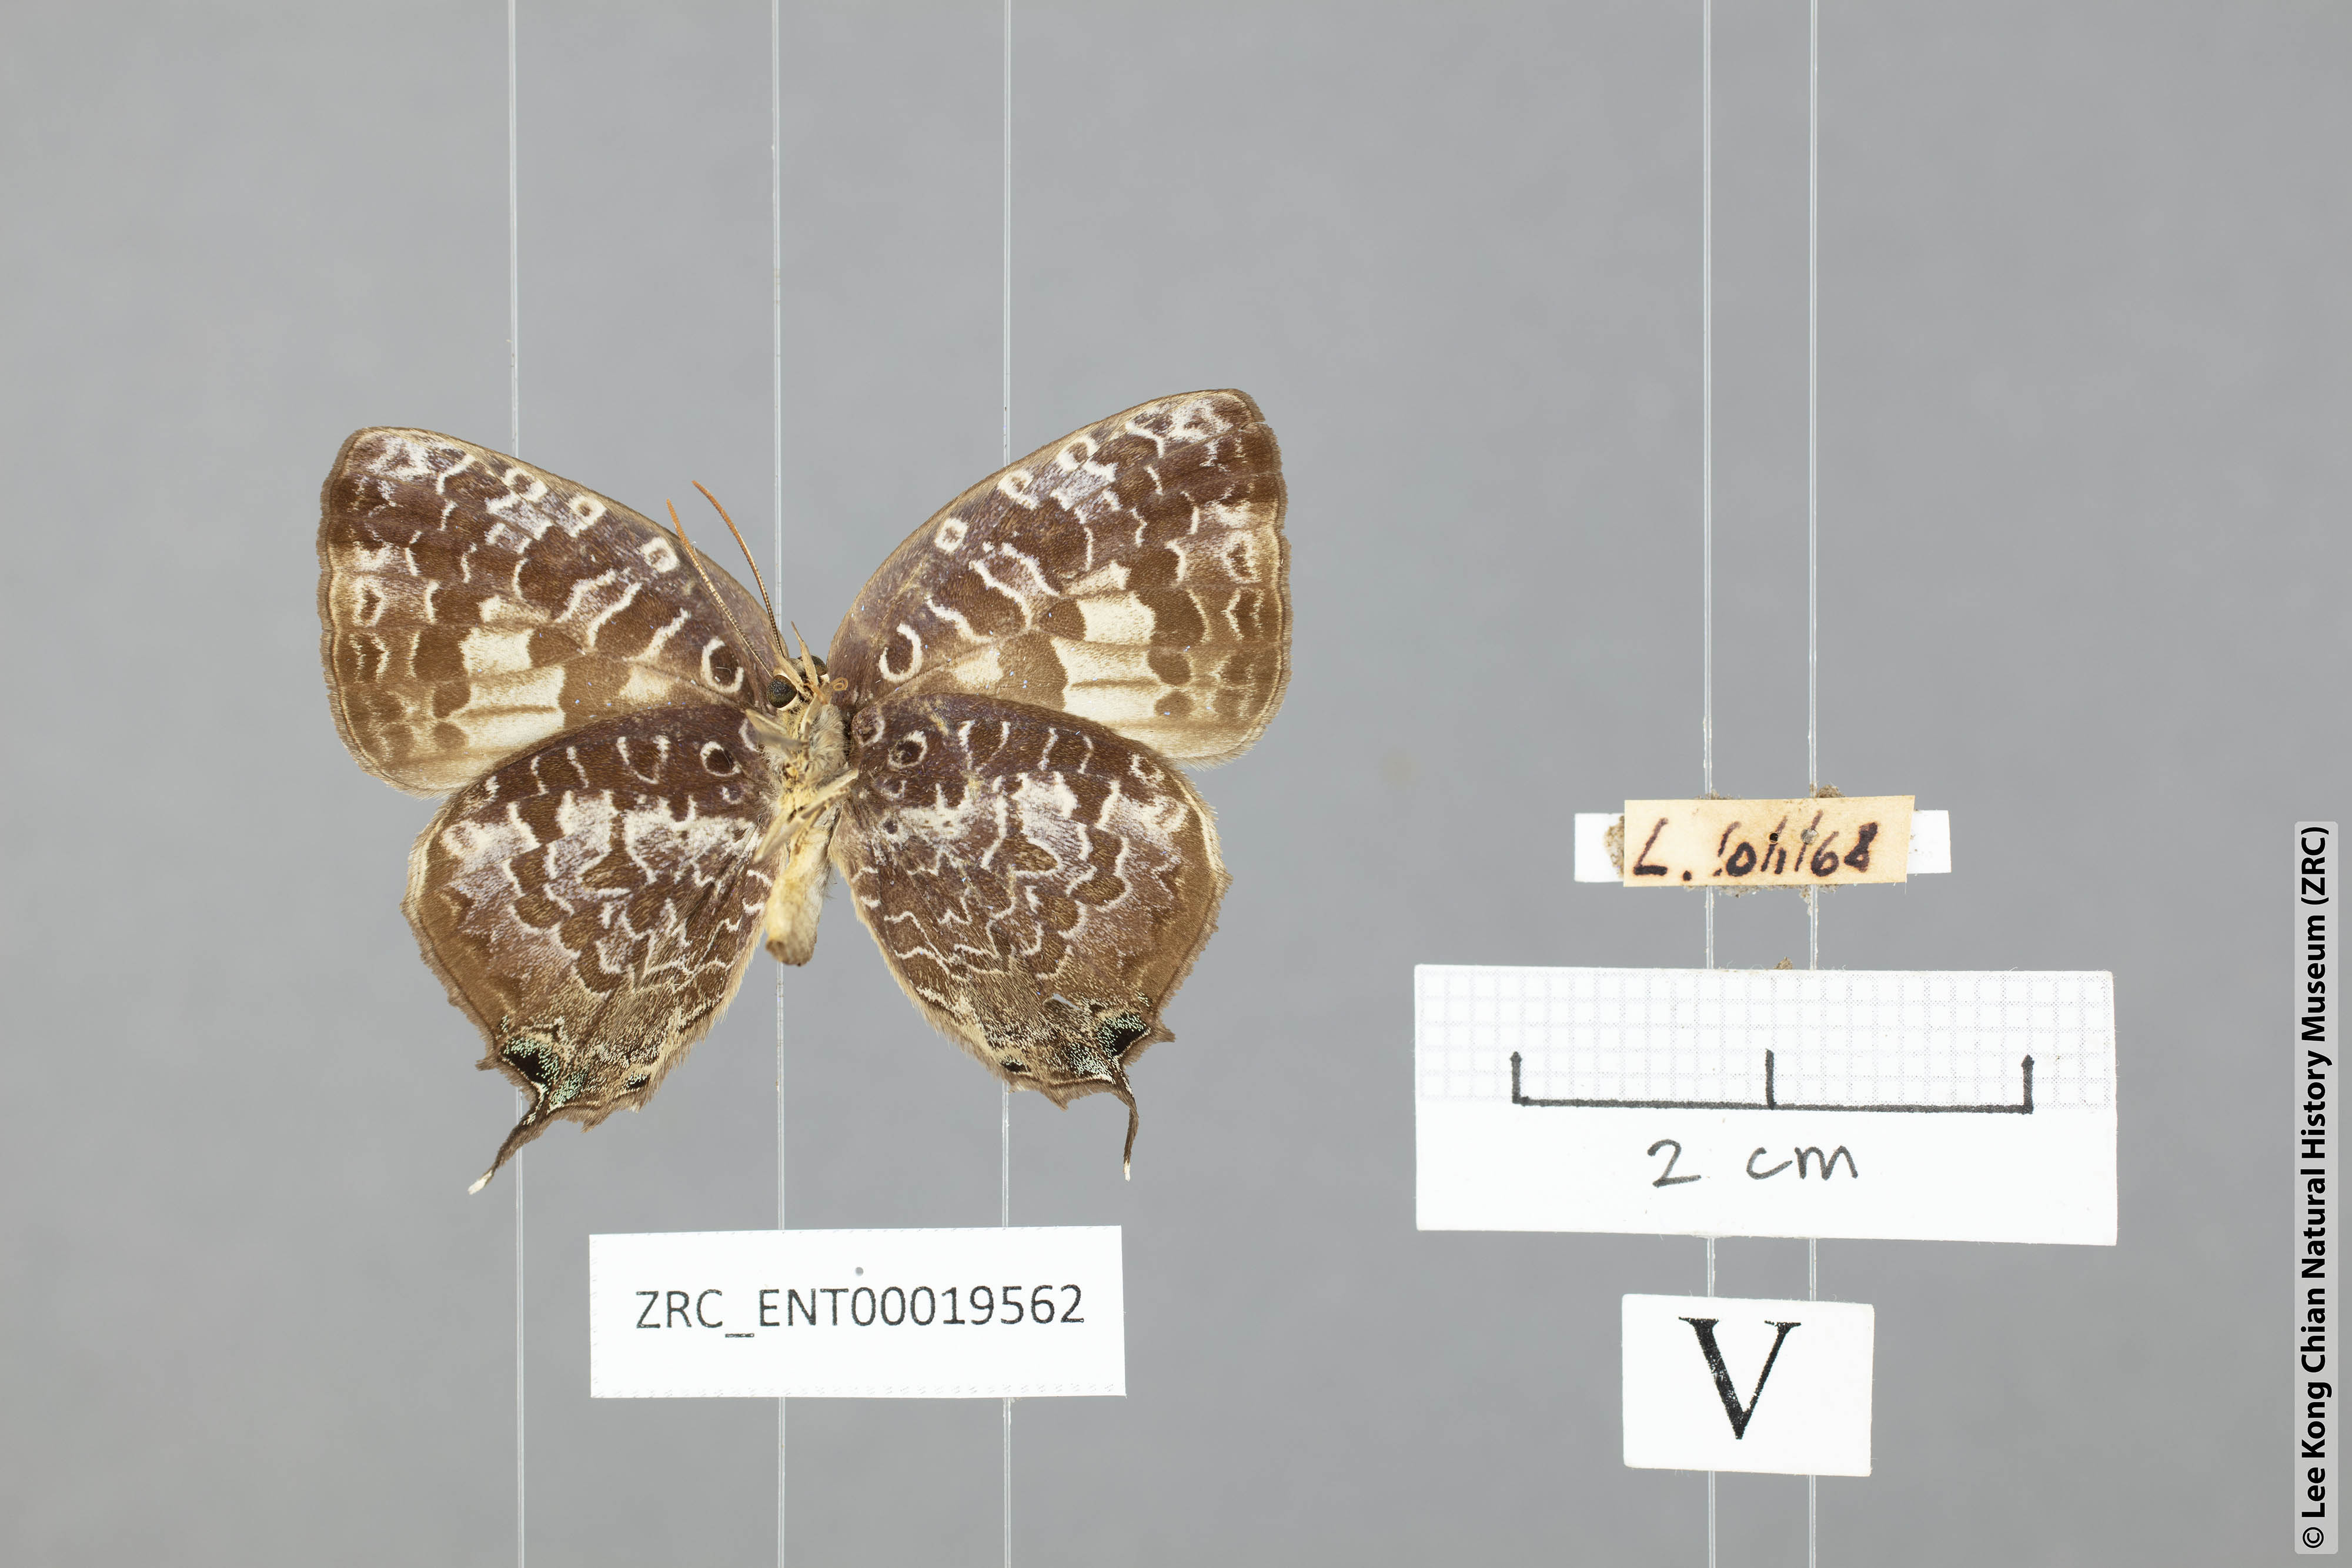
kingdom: Animalia
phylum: Arthropoda
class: Insecta
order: Lepidoptera
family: Lycaenidae
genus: Arhopala
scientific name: Arhopala ijauensis
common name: White-banded oakblue
